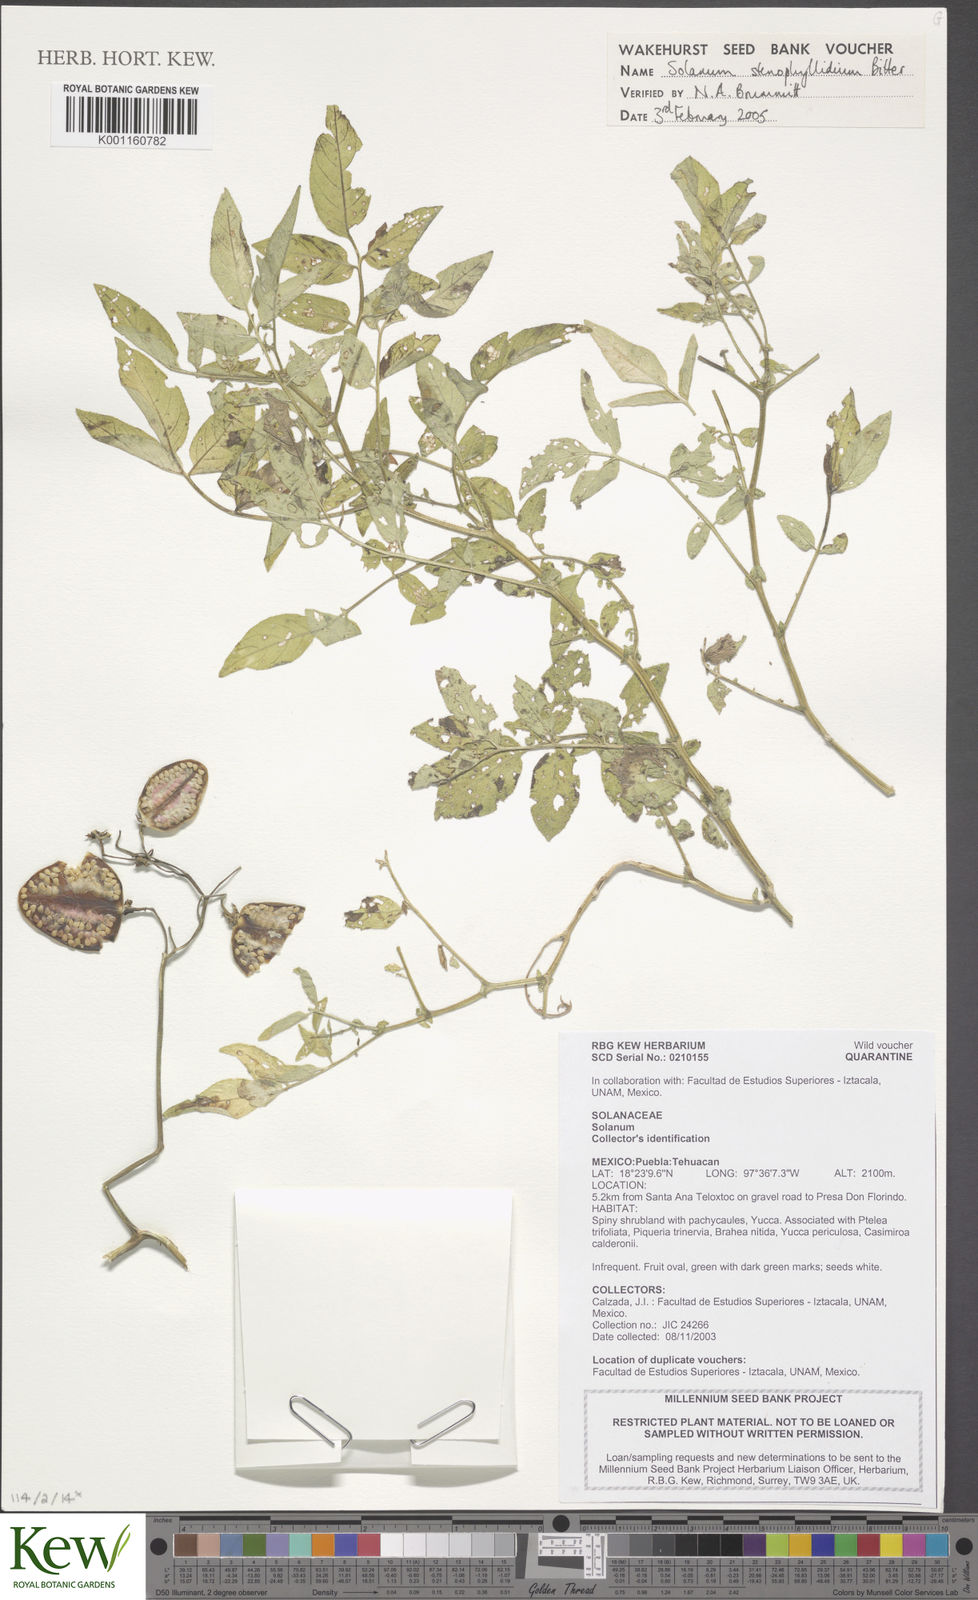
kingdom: Plantae
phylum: Tracheophyta
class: Magnoliopsida
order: Solanales
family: Solanaceae
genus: Solanum
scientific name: Solanum stenophyllidium
